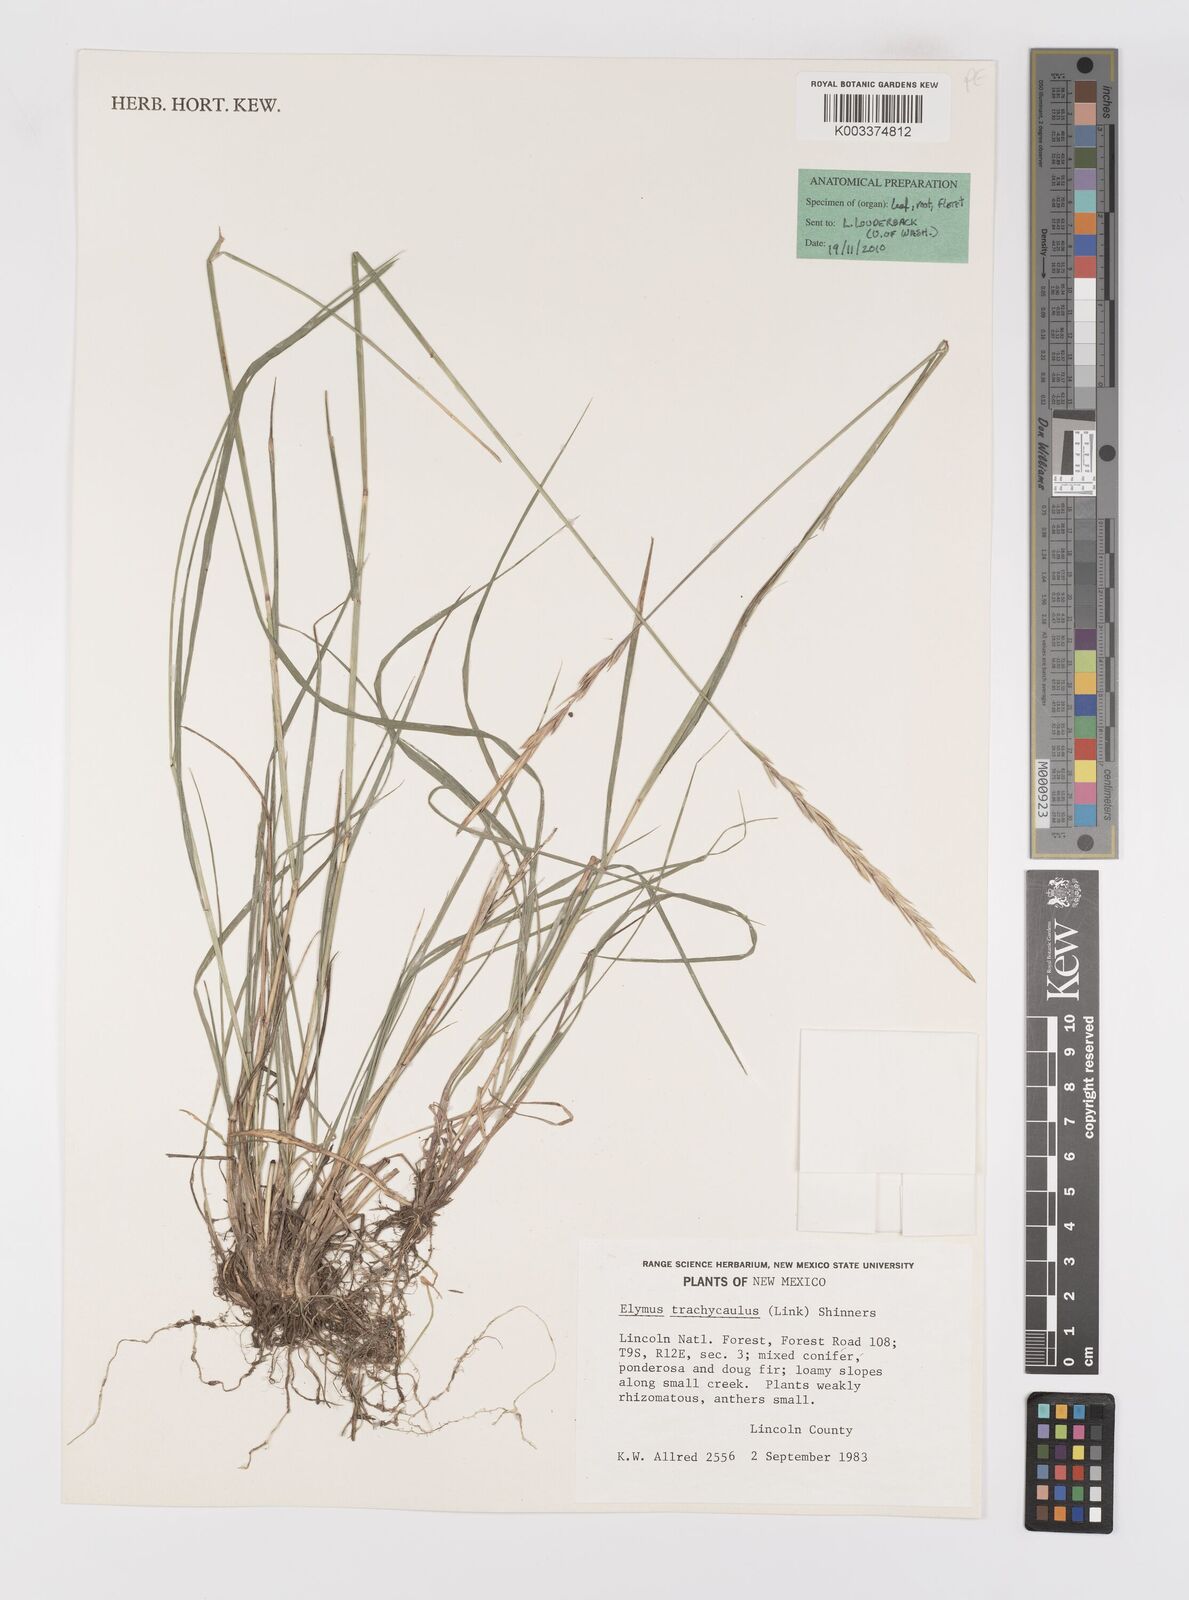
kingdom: Plantae
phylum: Tracheophyta
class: Liliopsida
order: Poales
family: Poaceae
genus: Elymus
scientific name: Elymus violaceus
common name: Arctic wheatgrass
